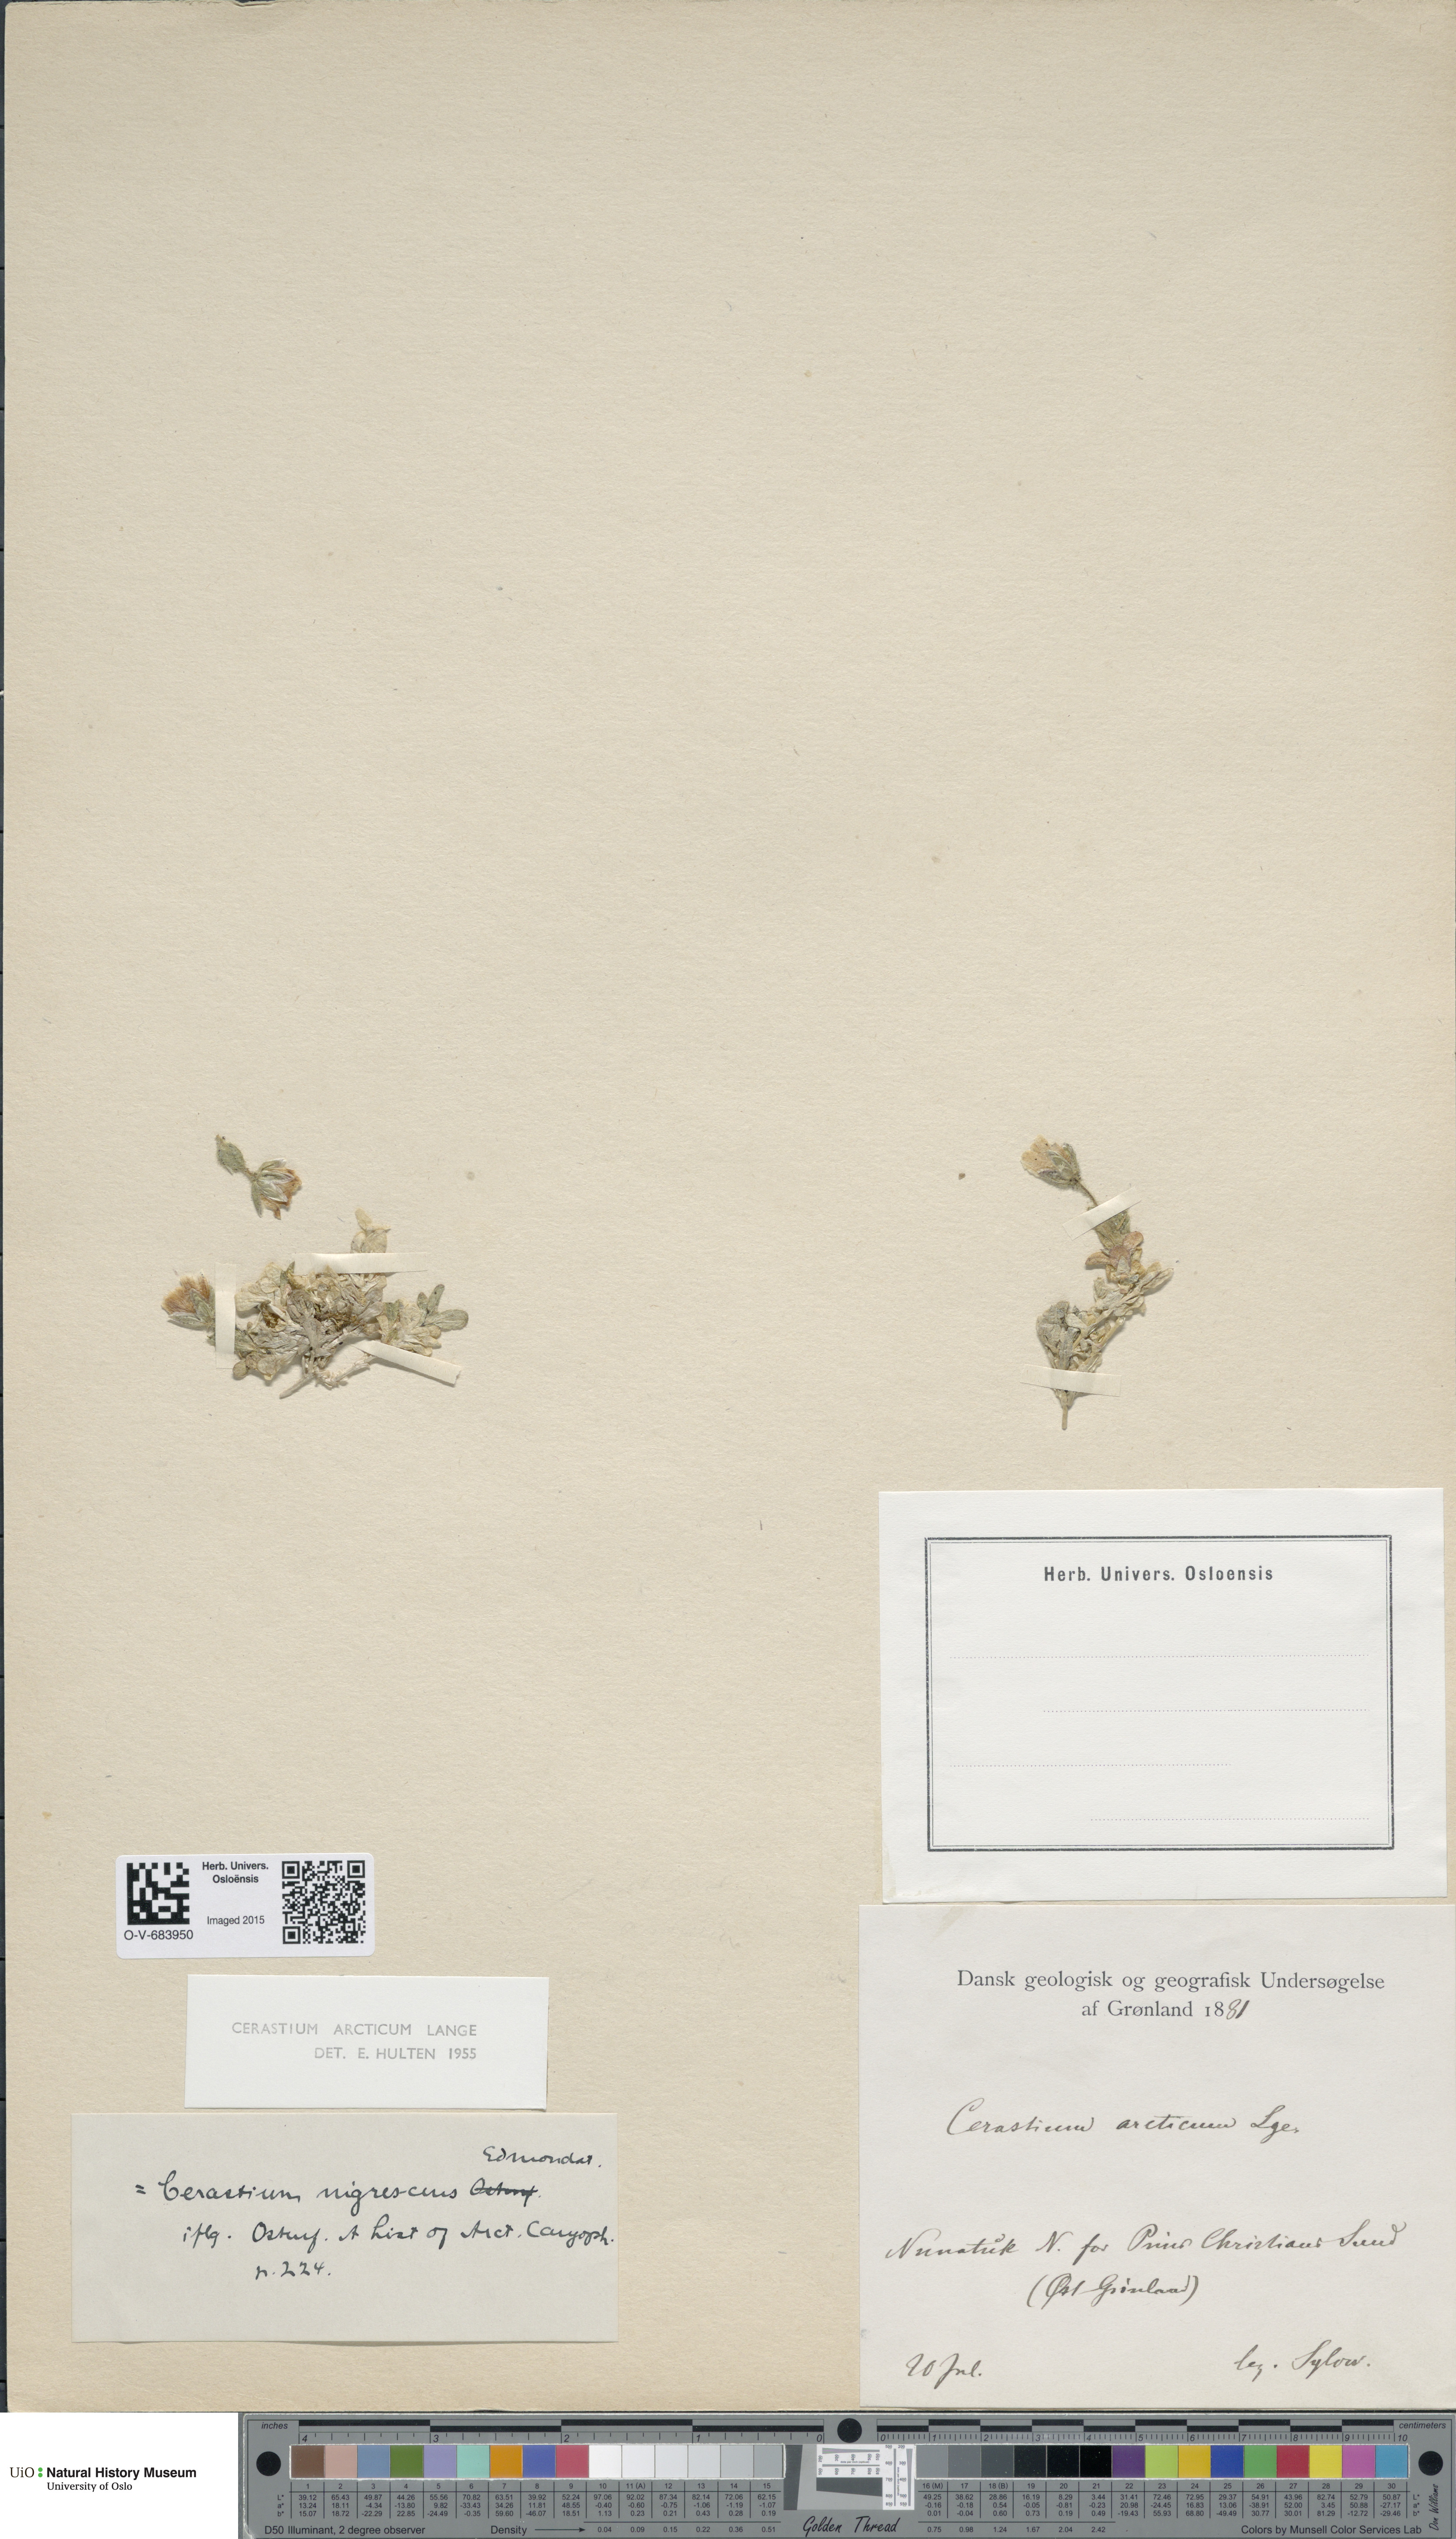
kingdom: Plantae
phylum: Tracheophyta
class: Magnoliopsida
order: Caryophyllales
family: Caryophyllaceae
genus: Cerastium
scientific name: Cerastium arcticum
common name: Arctic mouse-ear
